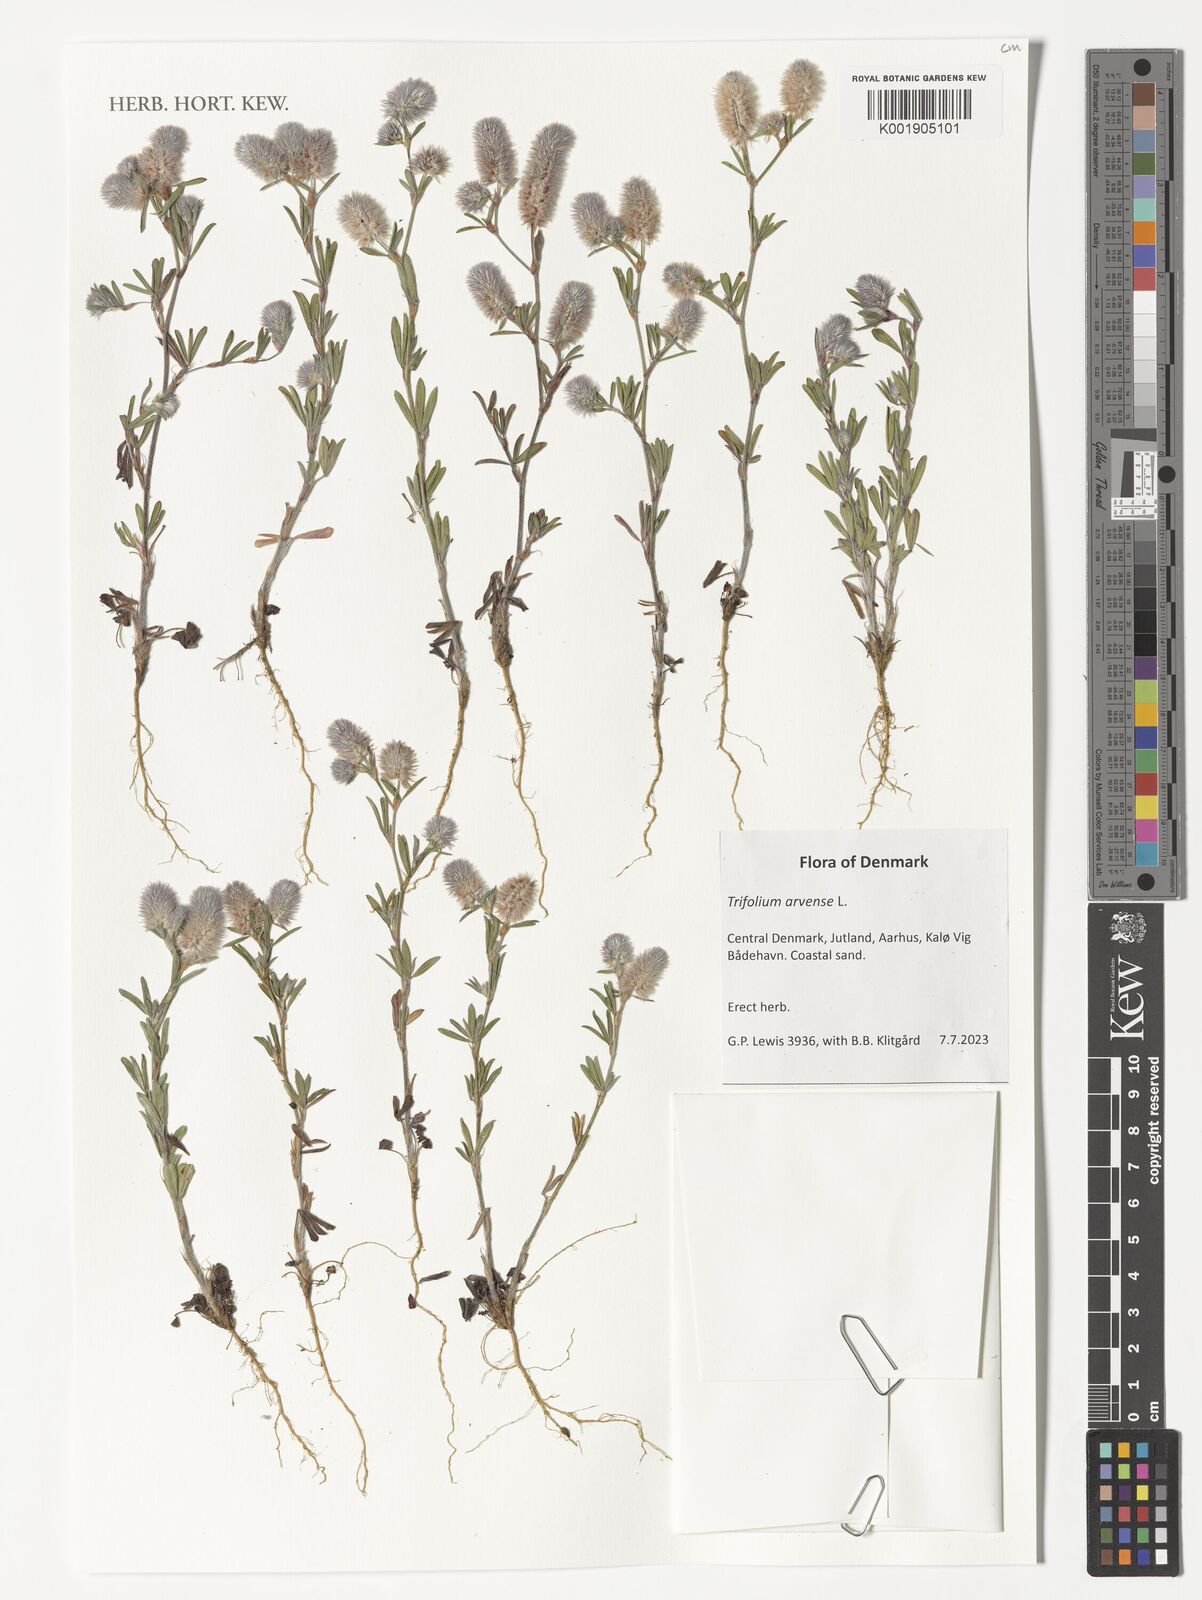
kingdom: Plantae
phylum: Tracheophyta
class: Magnoliopsida
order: Fabales
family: Fabaceae
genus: Trifolium
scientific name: Trifolium arvense
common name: Hare's-foot clover
